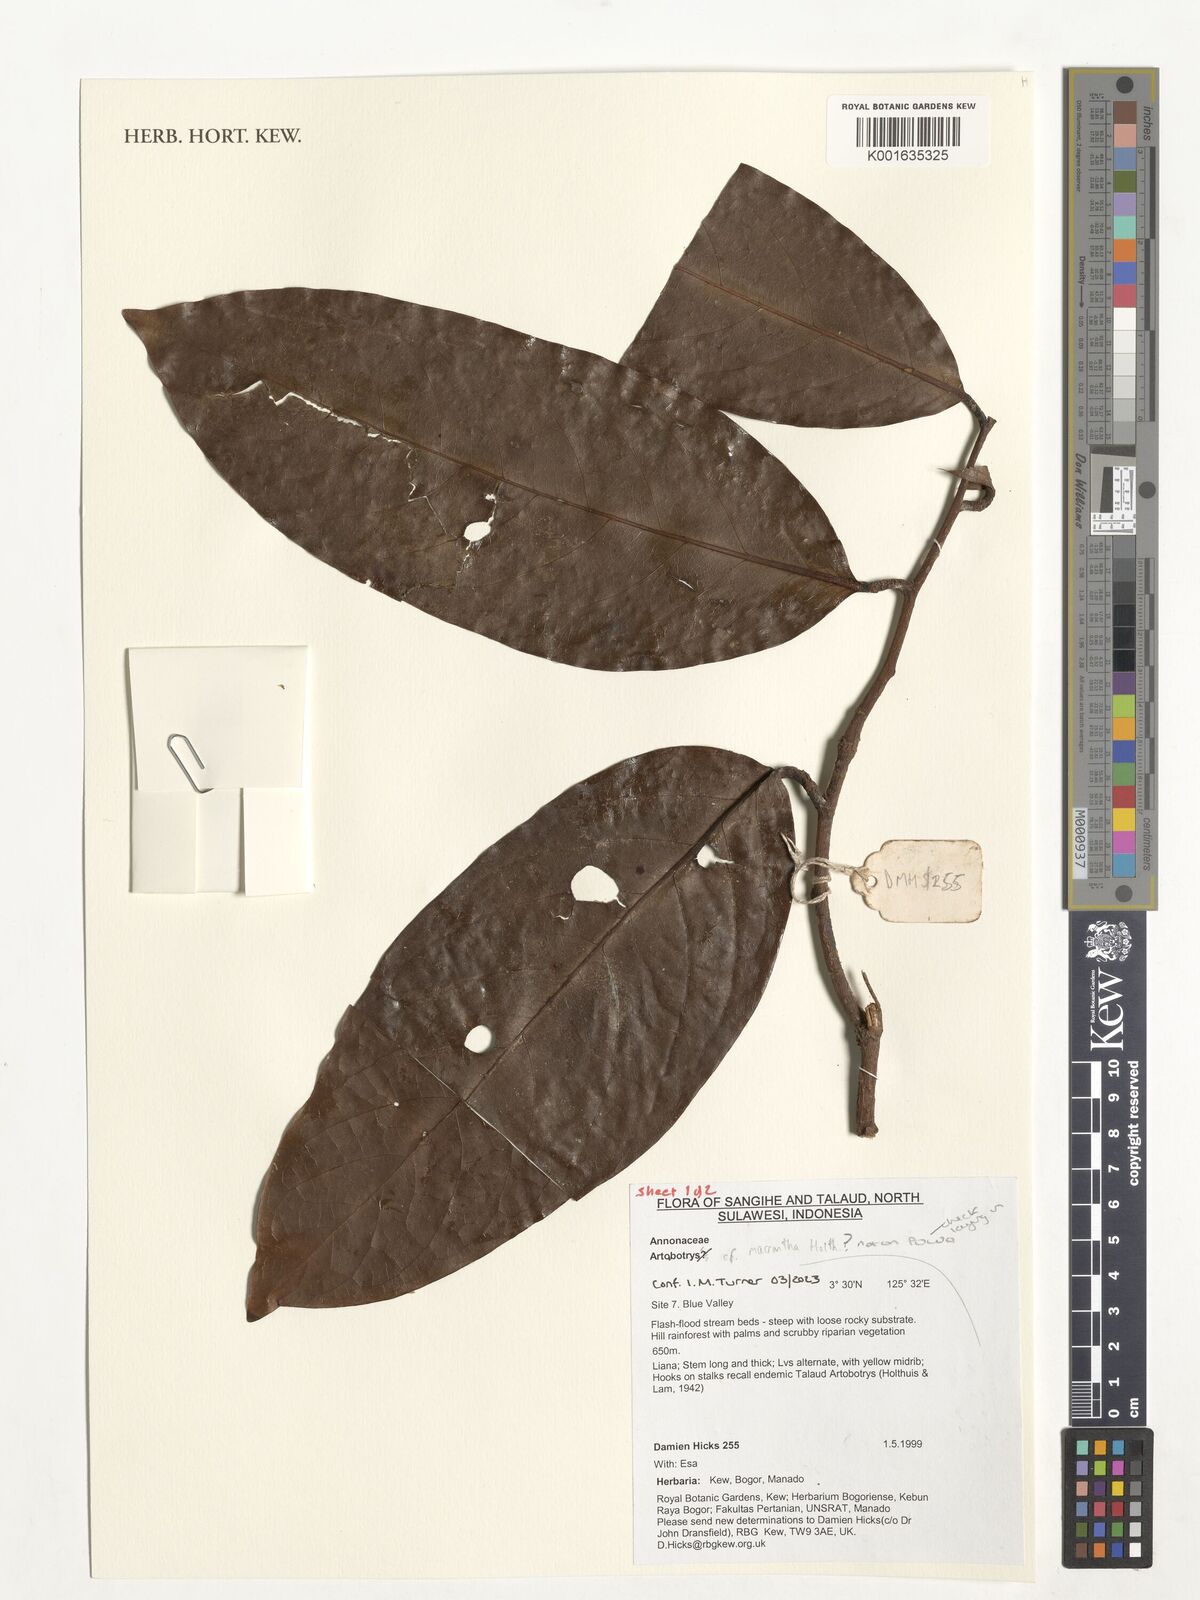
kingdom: Plantae
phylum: Tracheophyta
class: Magnoliopsida
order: Magnoliales
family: Annonaceae
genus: Artabotrys
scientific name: Artabotrys lanuginosus
